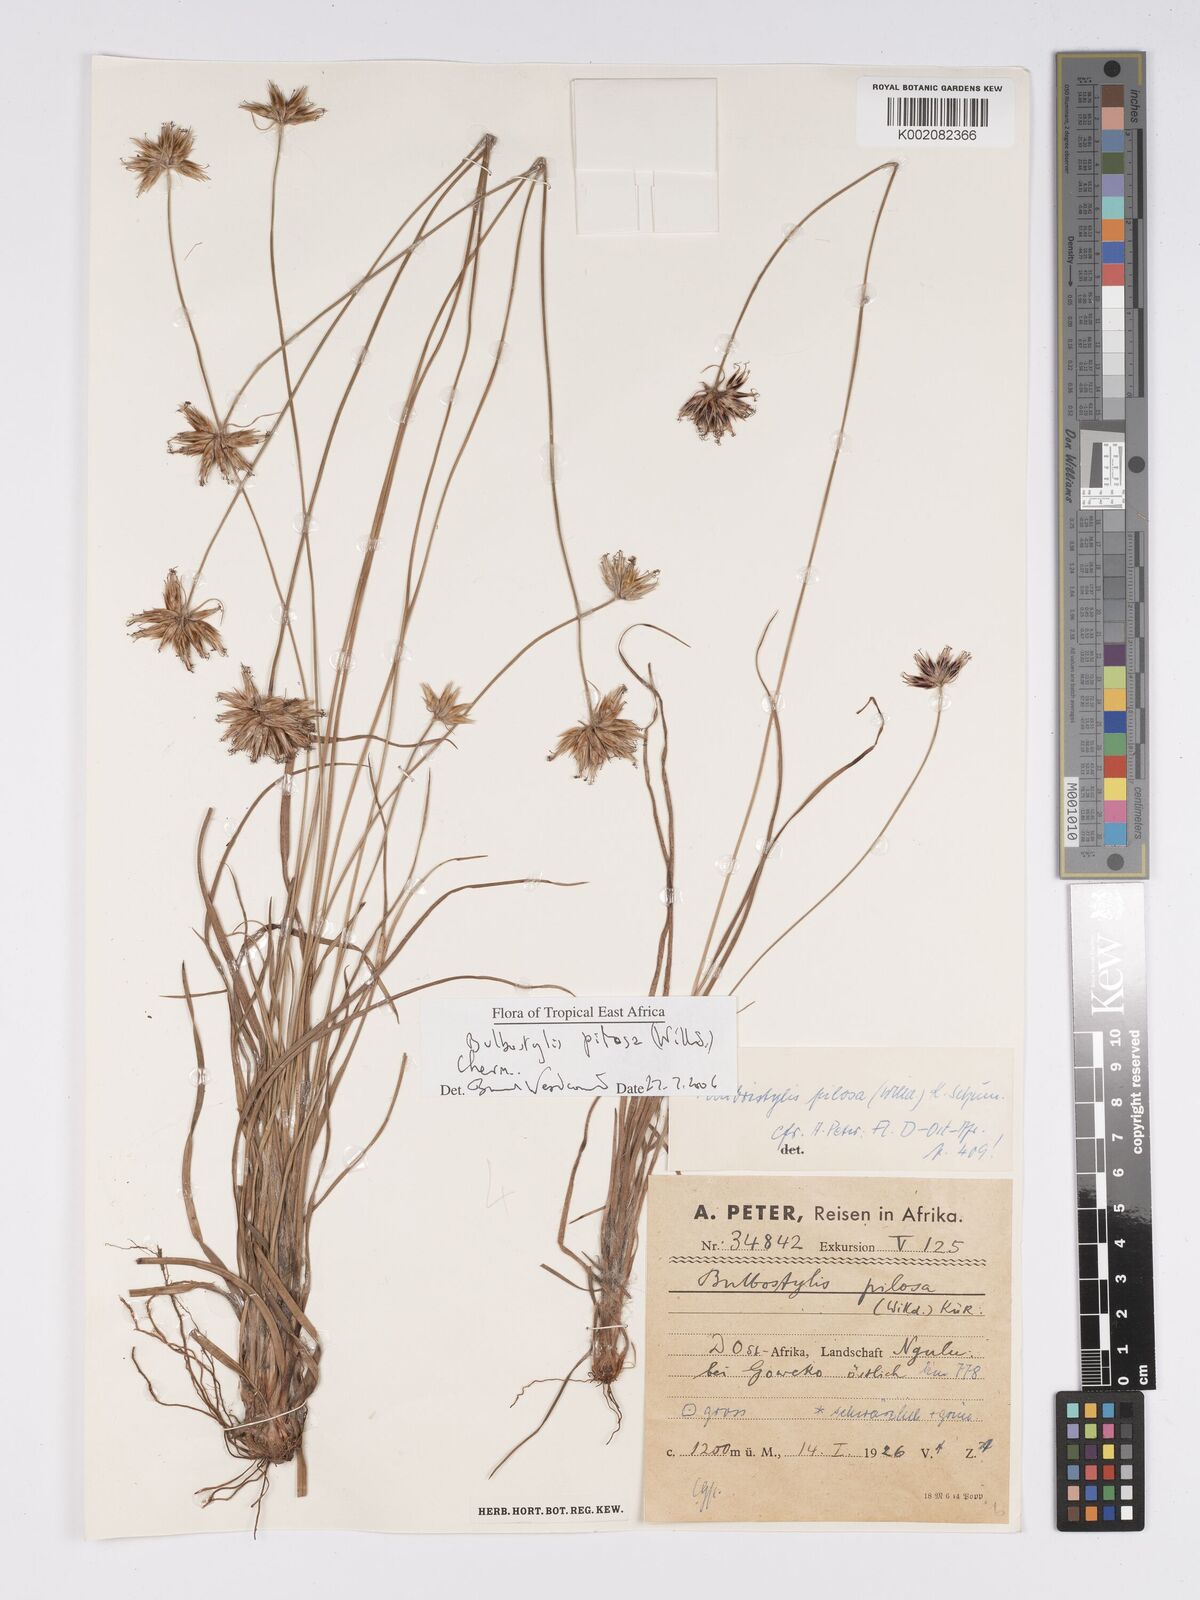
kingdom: Plantae
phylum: Tracheophyta
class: Liliopsida
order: Poales
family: Cyperaceae
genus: Bulbostylis
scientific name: Bulbostylis pilosa
